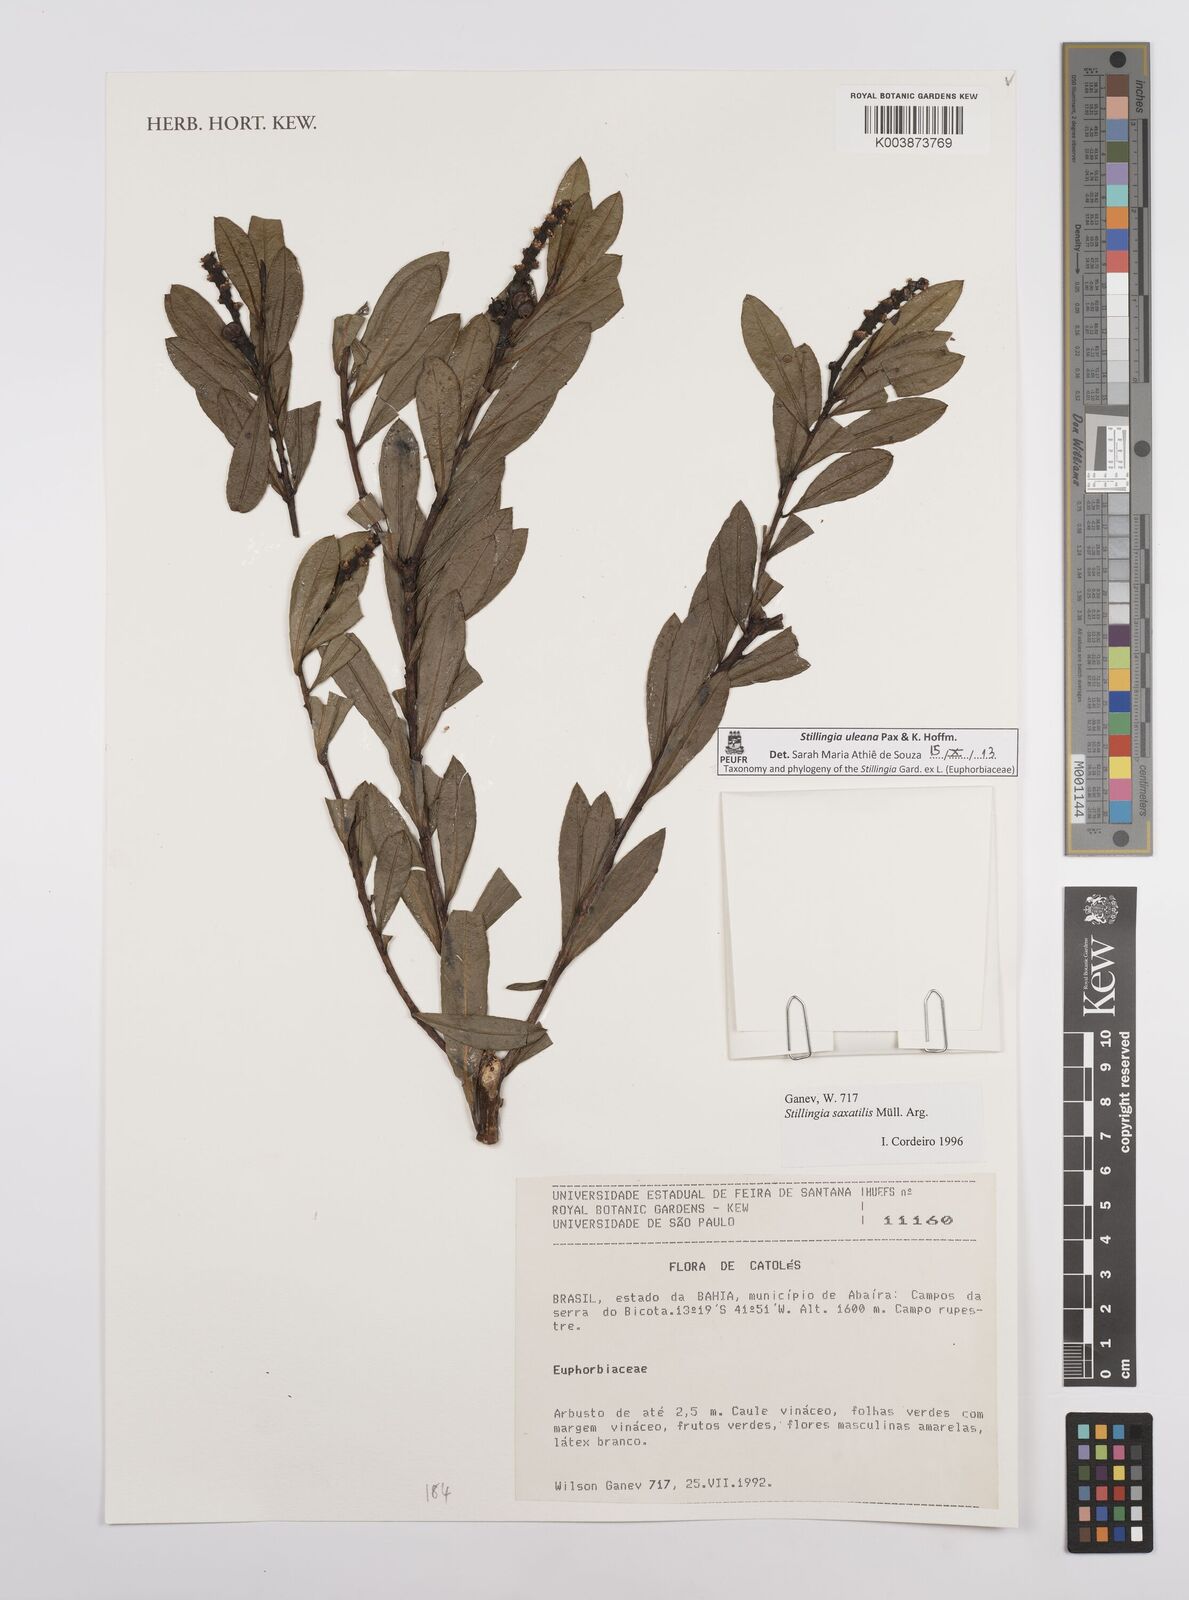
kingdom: Plantae
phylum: Tracheophyta
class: Magnoliopsida
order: Malpighiales
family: Euphorbiaceae
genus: Stillingia
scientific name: Stillingia uleana
